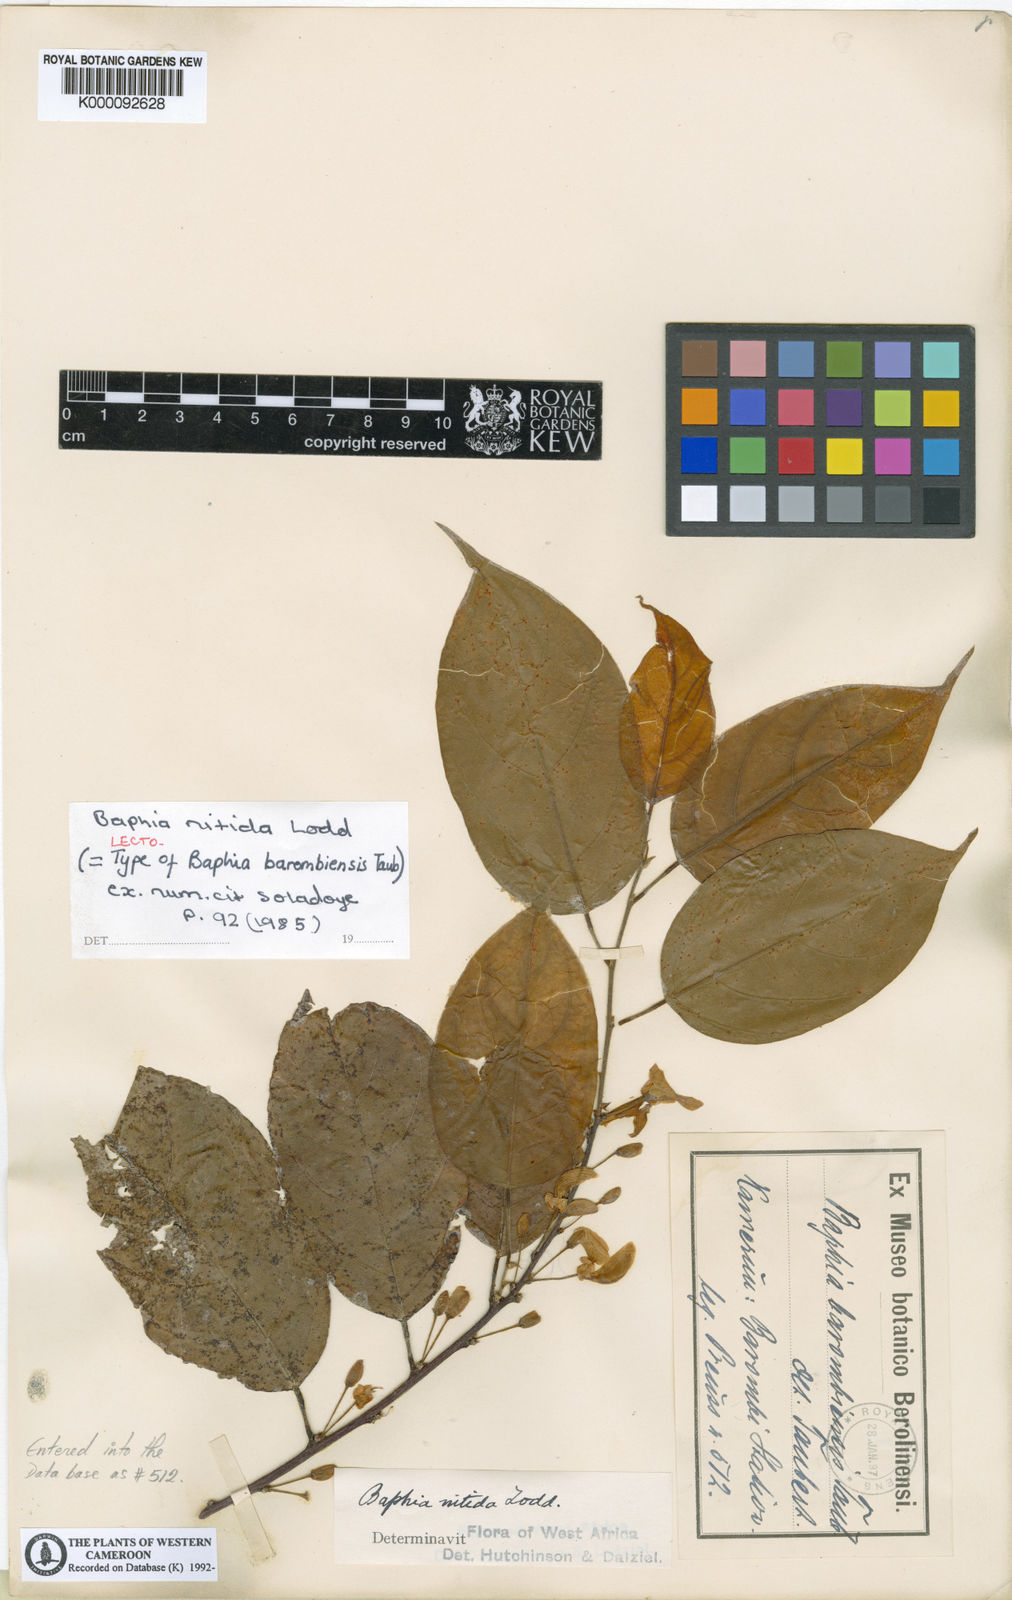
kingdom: Plantae
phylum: Tracheophyta
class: Magnoliopsida
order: Fabales
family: Fabaceae
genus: Baphia
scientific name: Baphia nitida
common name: Camwood
